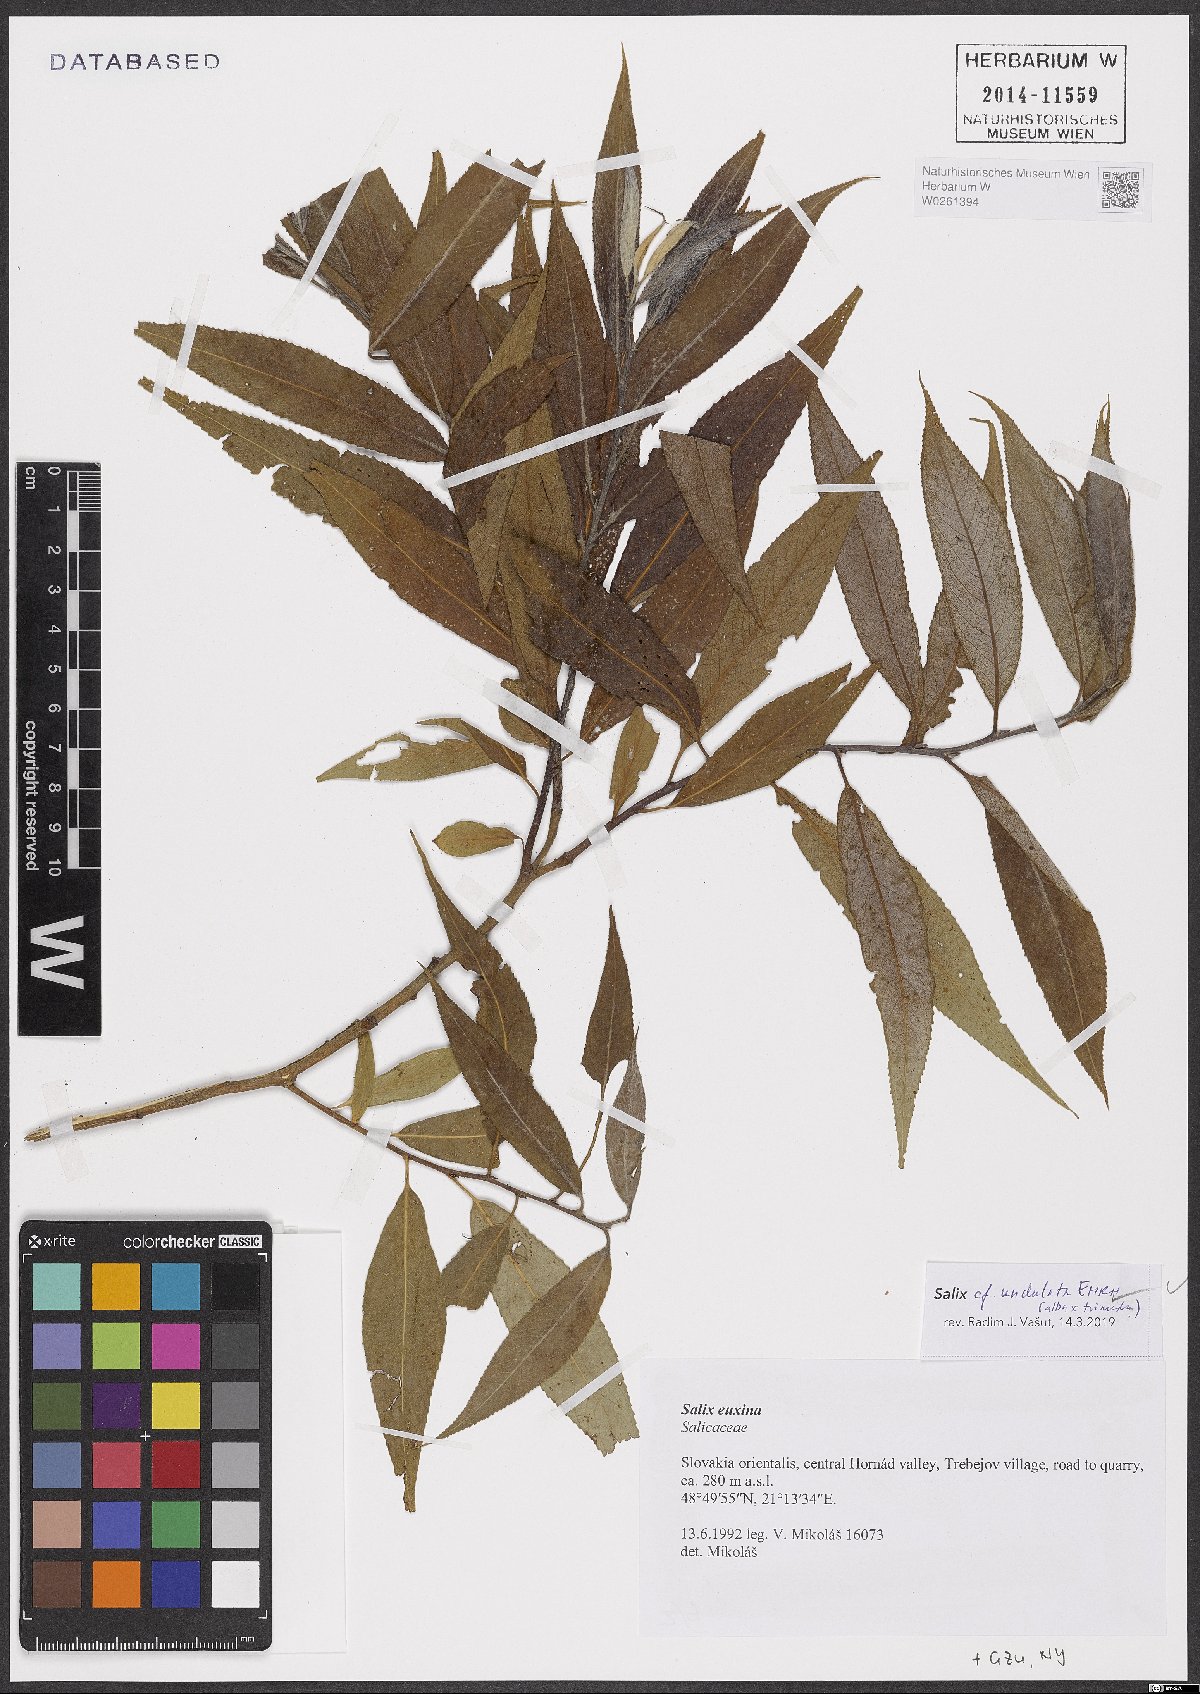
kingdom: Plantae
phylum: Tracheophyta
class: Magnoliopsida
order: Malpighiales
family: Salicaceae
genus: Salix
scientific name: Salix undulata
